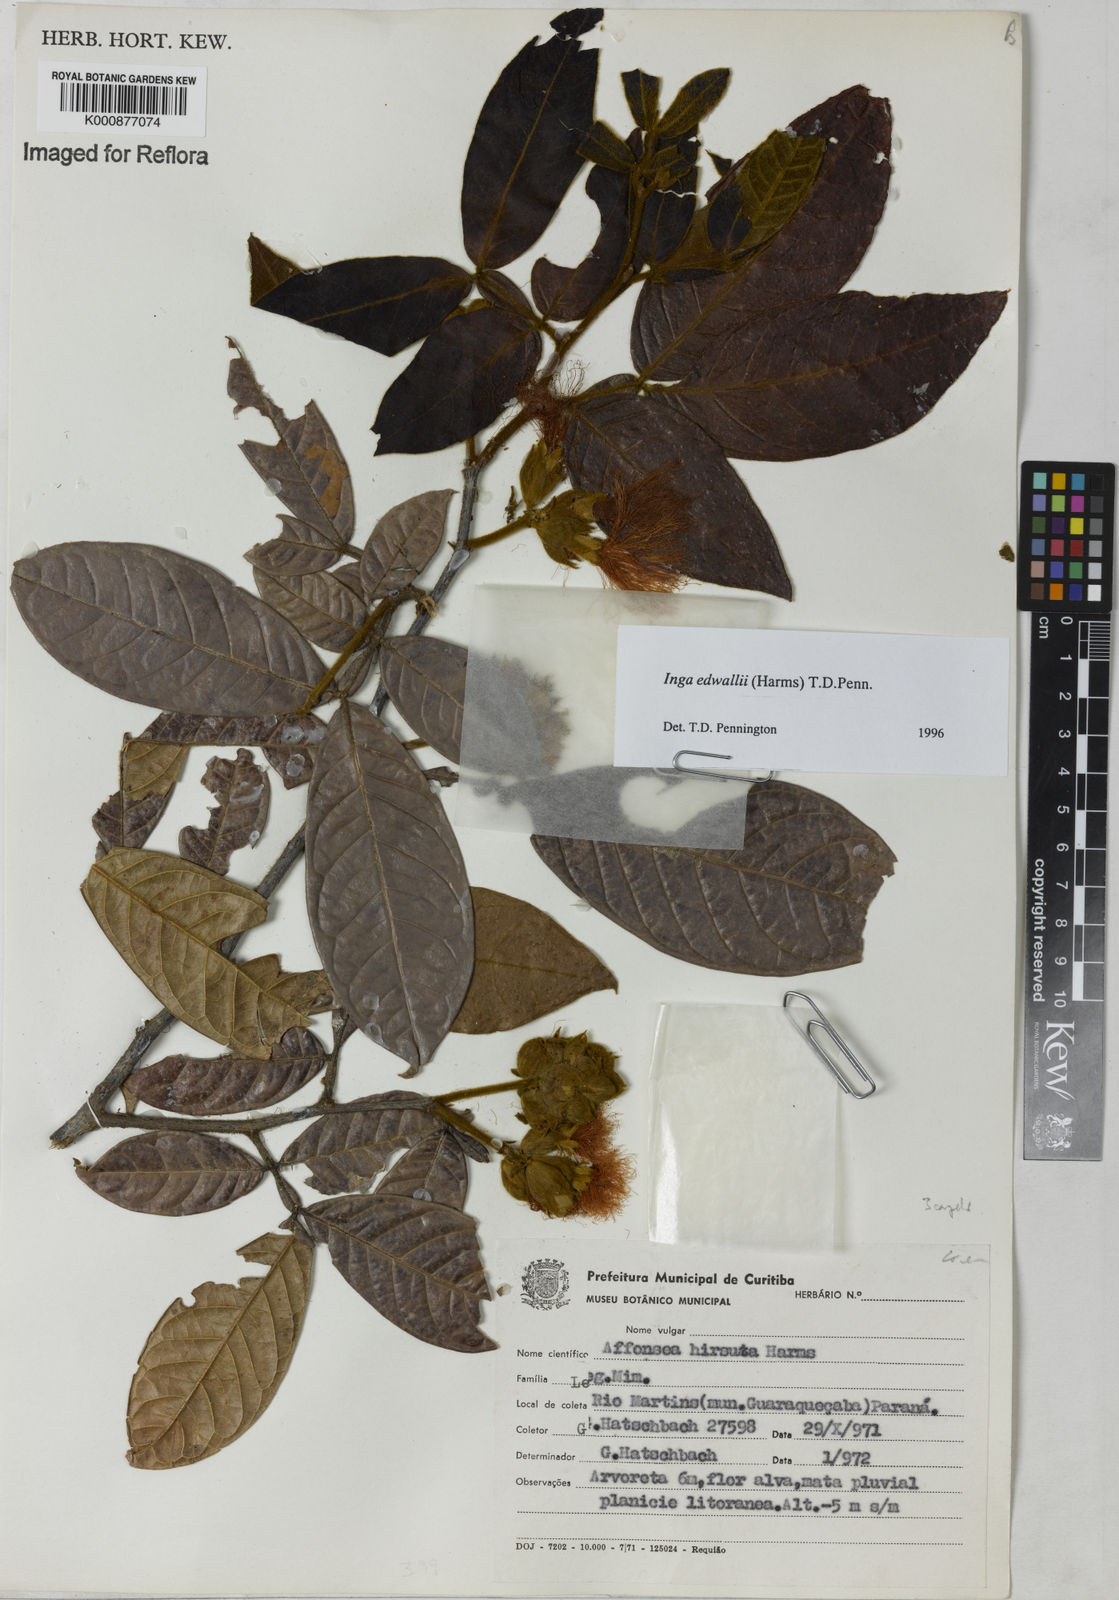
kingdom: Plantae
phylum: Tracheophyta
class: Magnoliopsida
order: Fabales
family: Fabaceae
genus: Inga
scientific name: Inga edwallii
